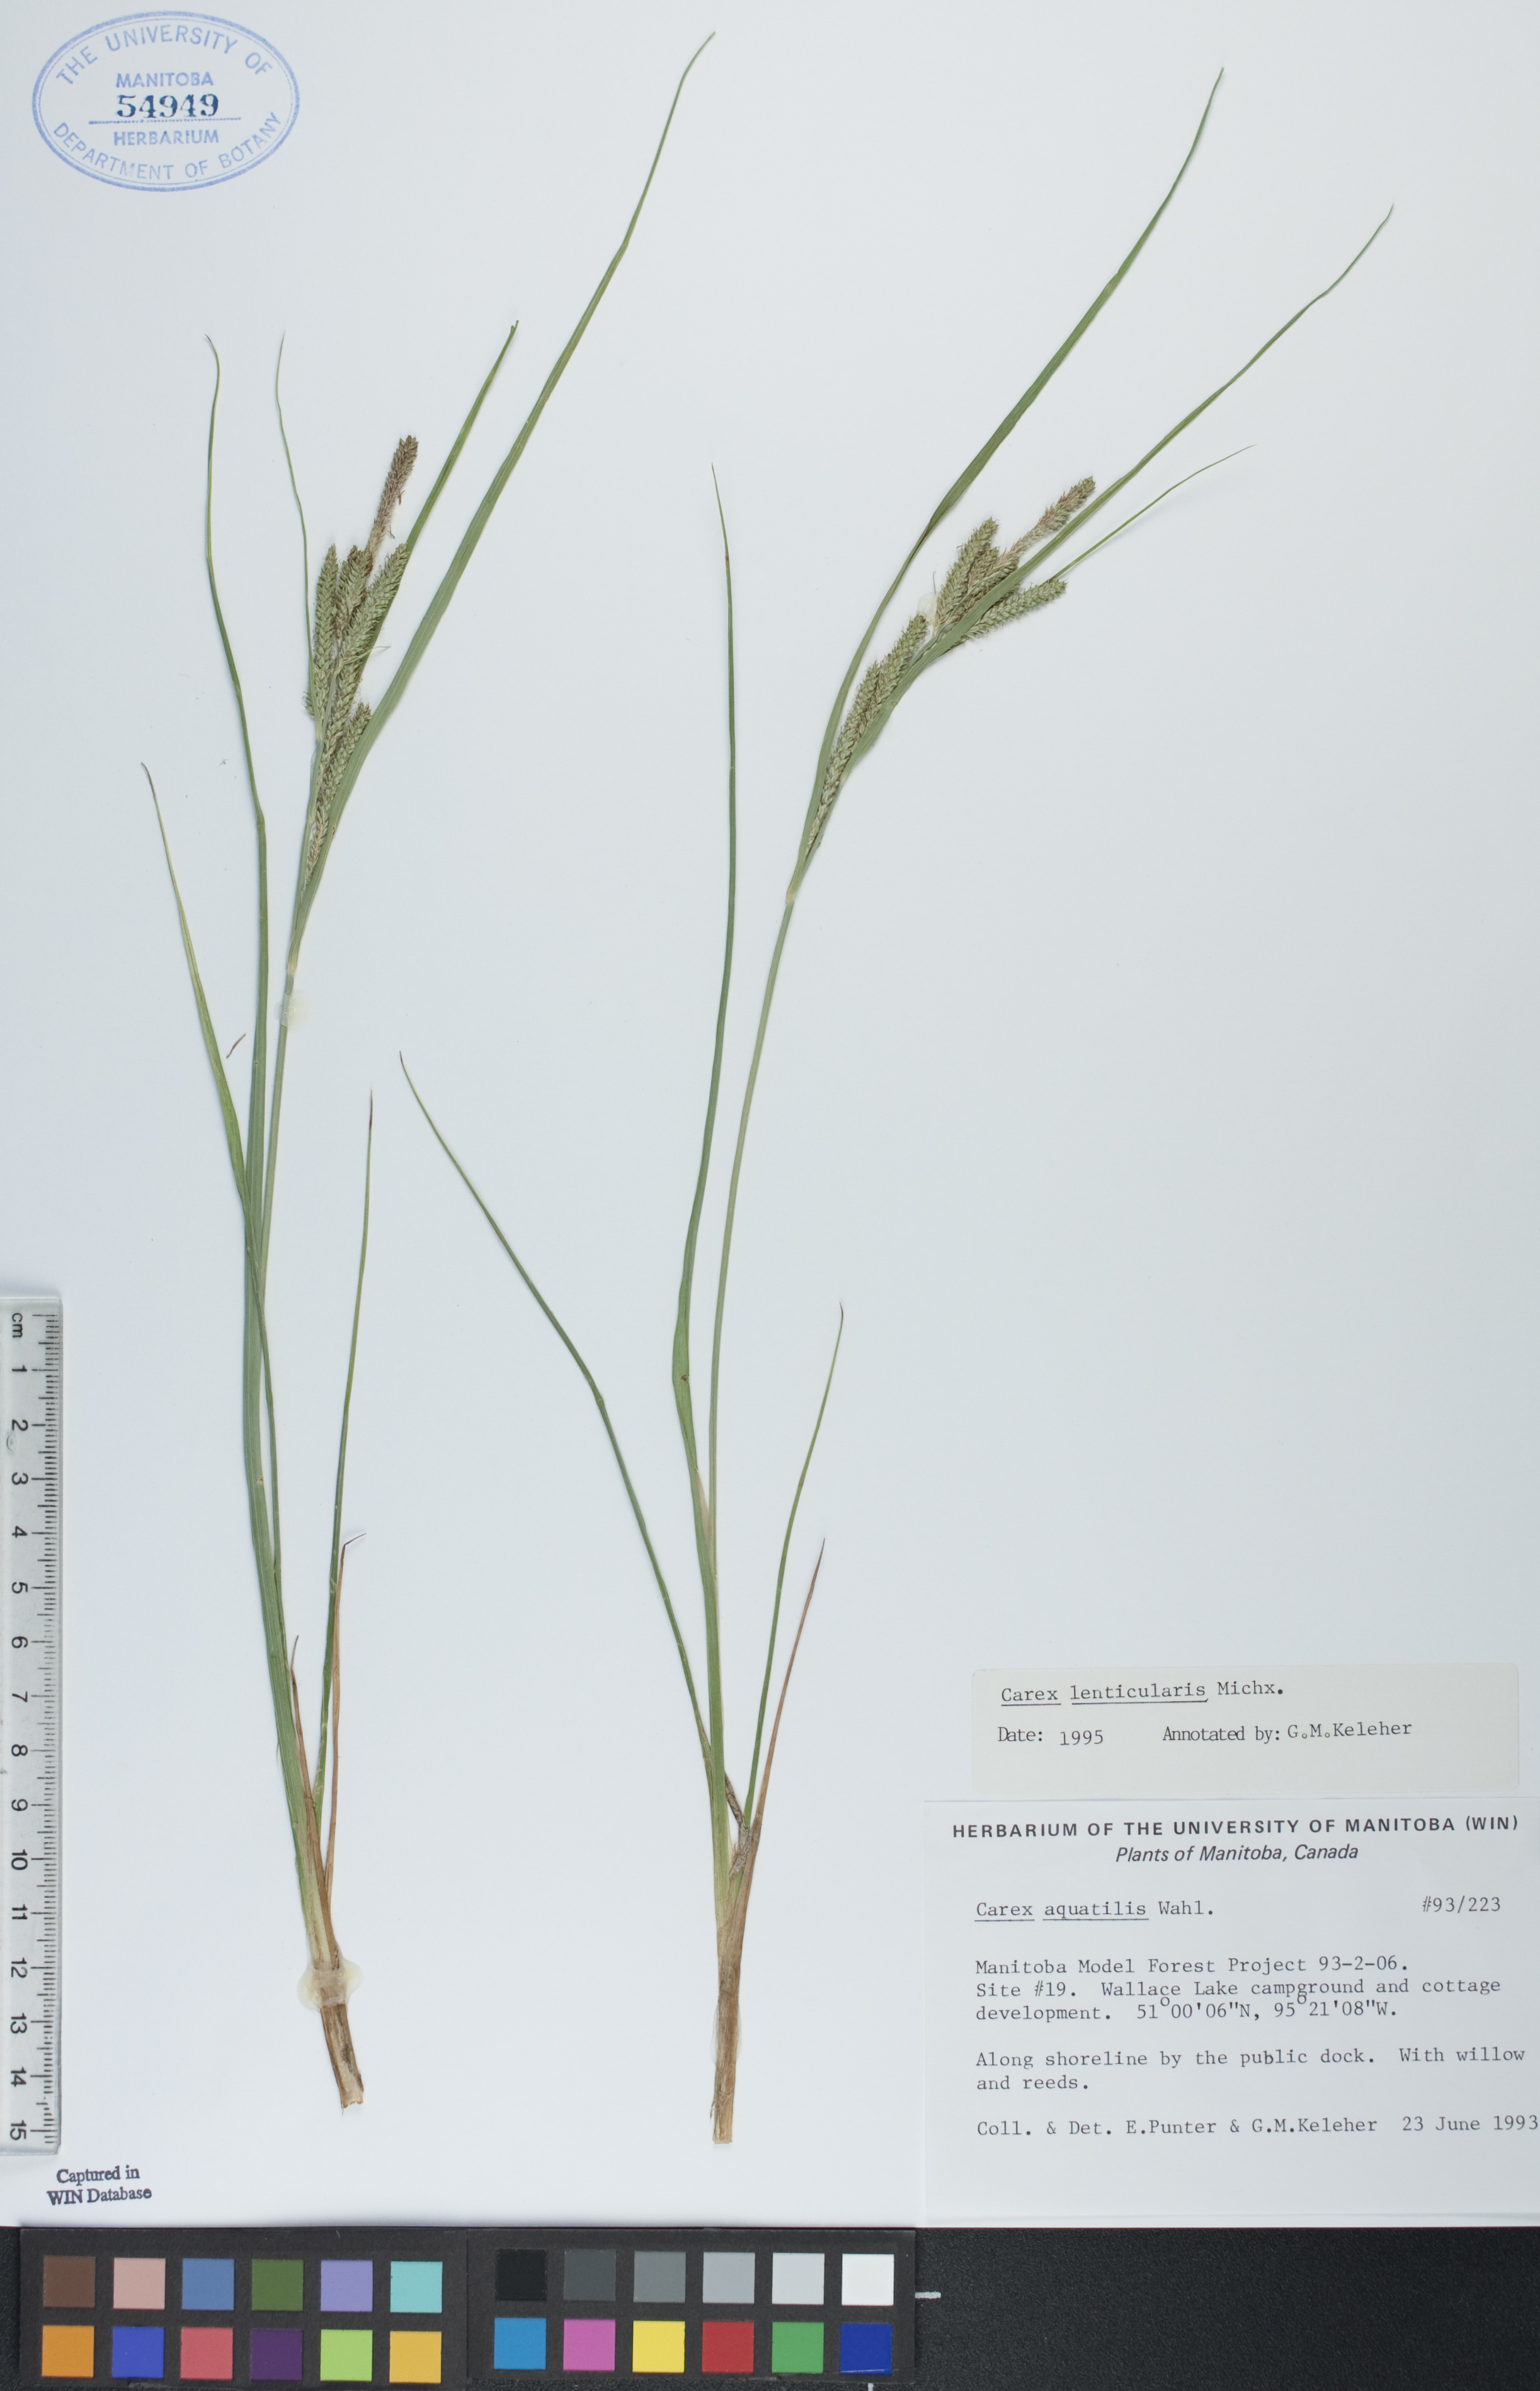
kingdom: Plantae
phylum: Tracheophyta
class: Liliopsida
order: Poales
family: Cyperaceae
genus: Carex
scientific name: Carex lenticularis
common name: Lakeshore sedge
